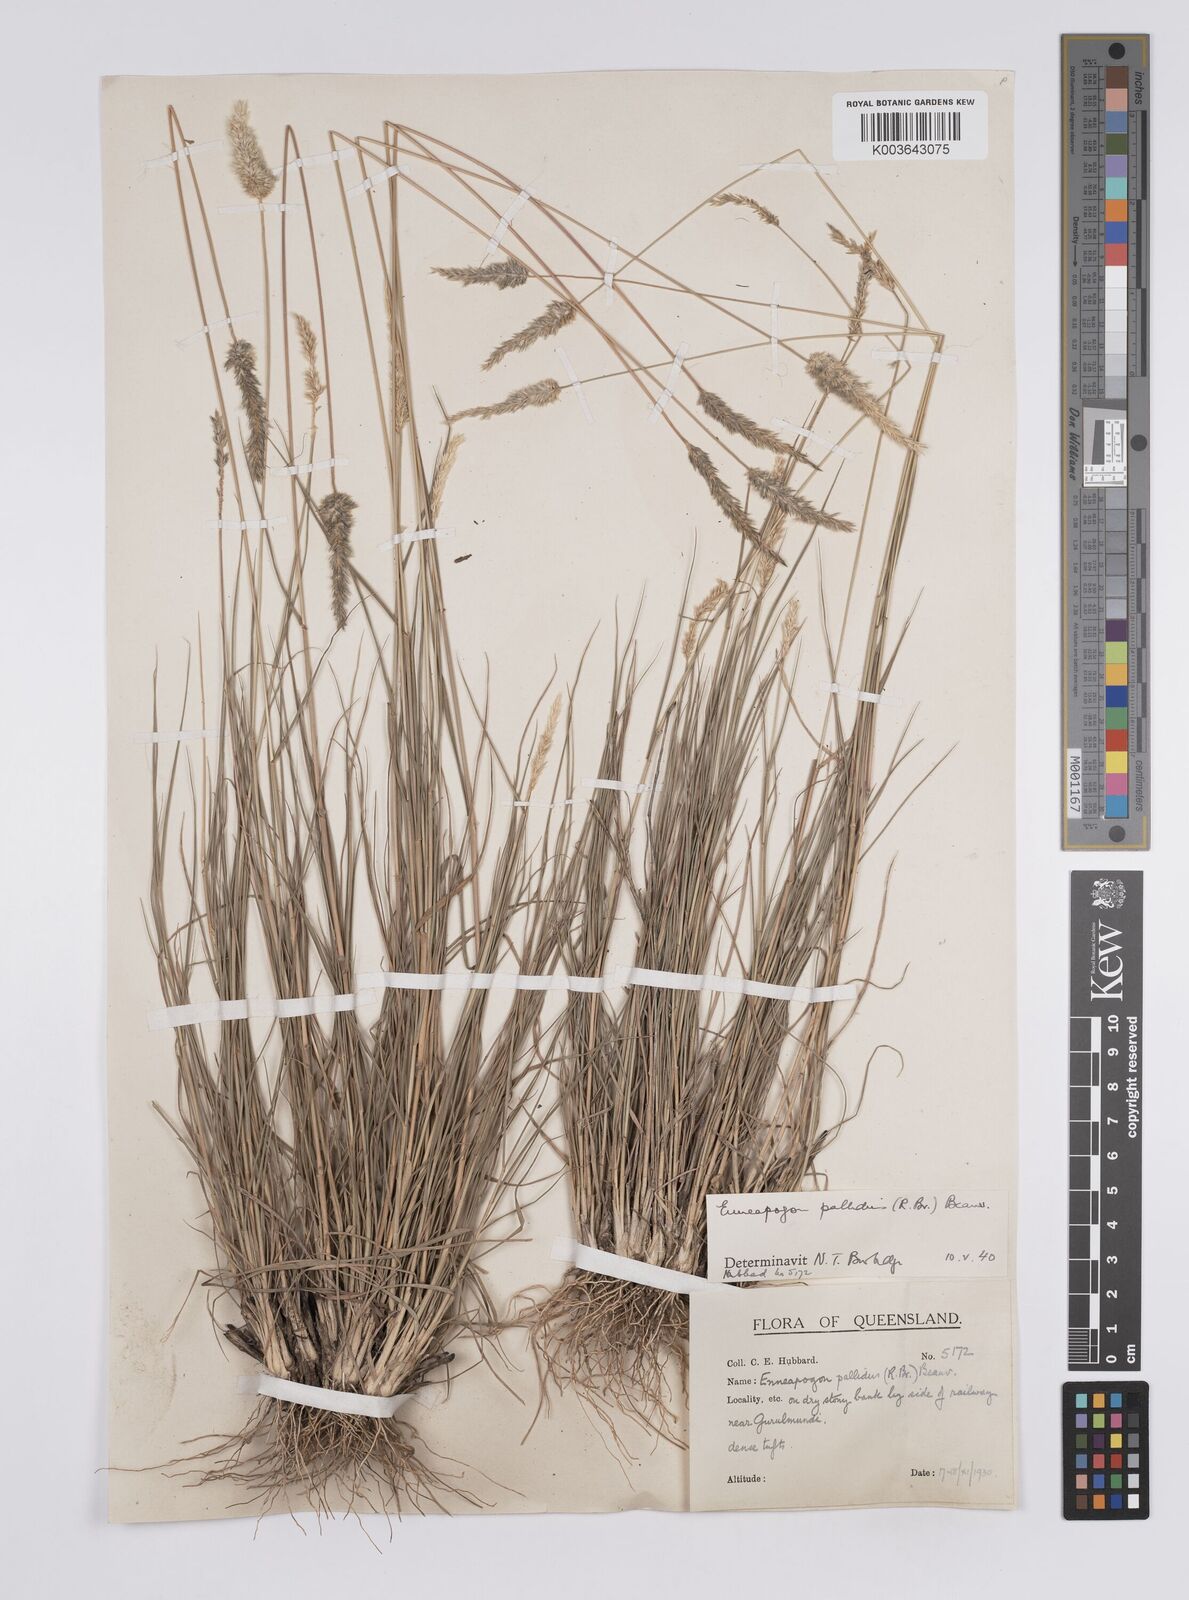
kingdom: Plantae
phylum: Tracheophyta
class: Liliopsida
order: Poales
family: Poaceae
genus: Enneapogon
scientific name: Enneapogon pallidus
